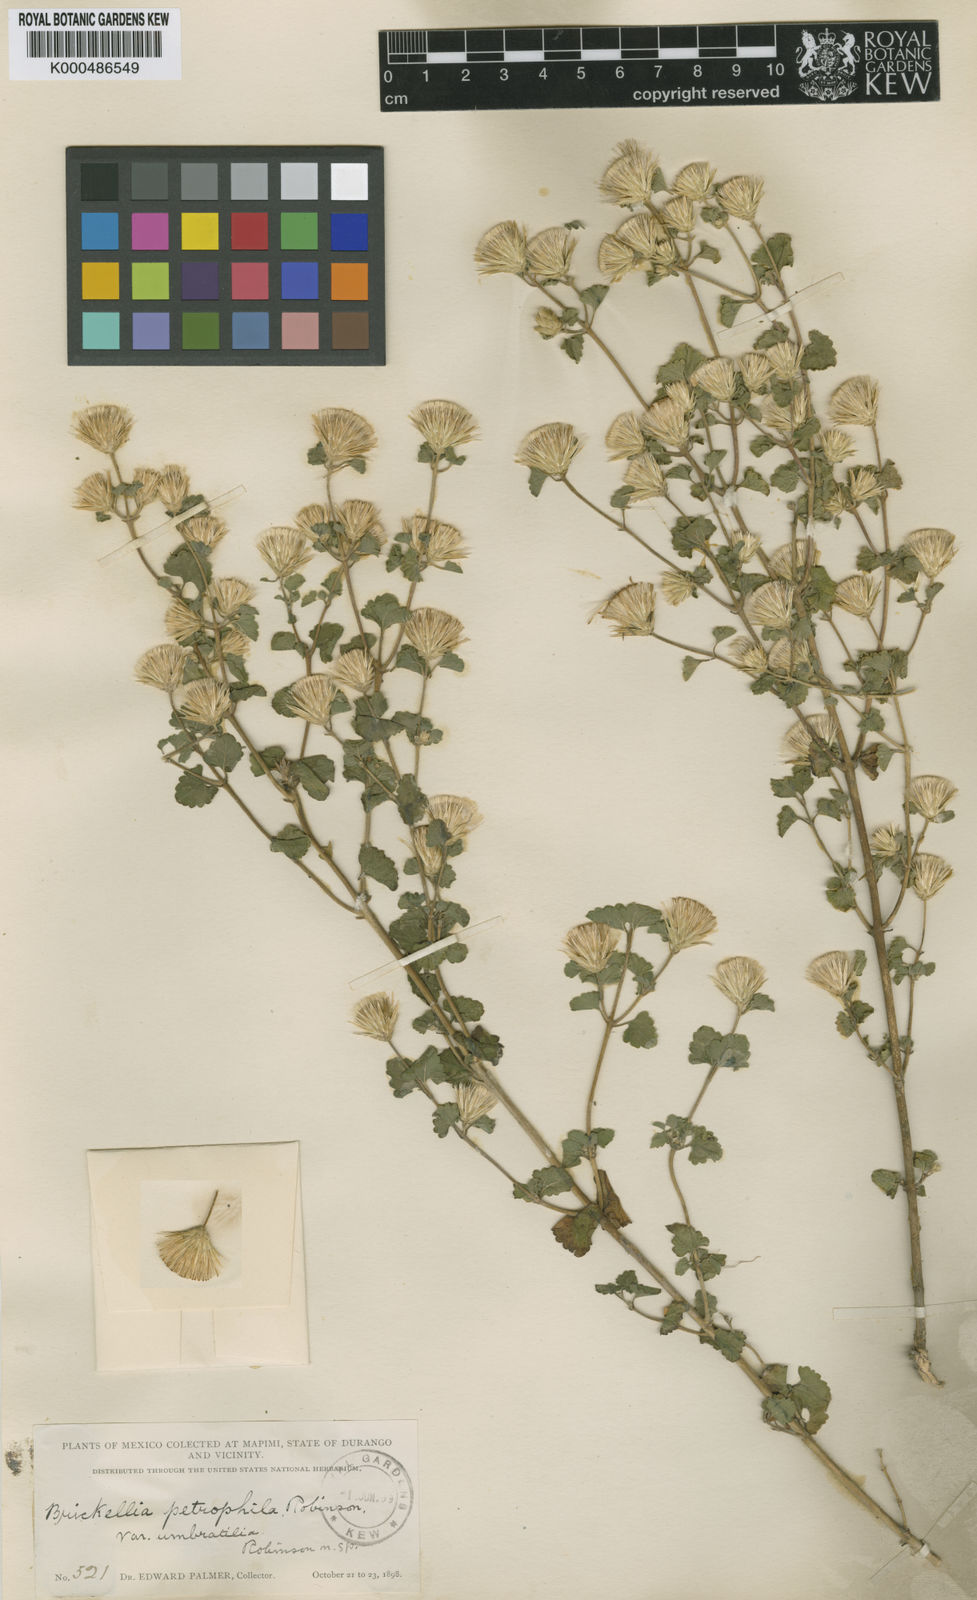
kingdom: Plantae
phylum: Tracheophyta
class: Magnoliopsida
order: Asterales
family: Asteraceae
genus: Brickellia
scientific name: Brickellia veronicifolia
